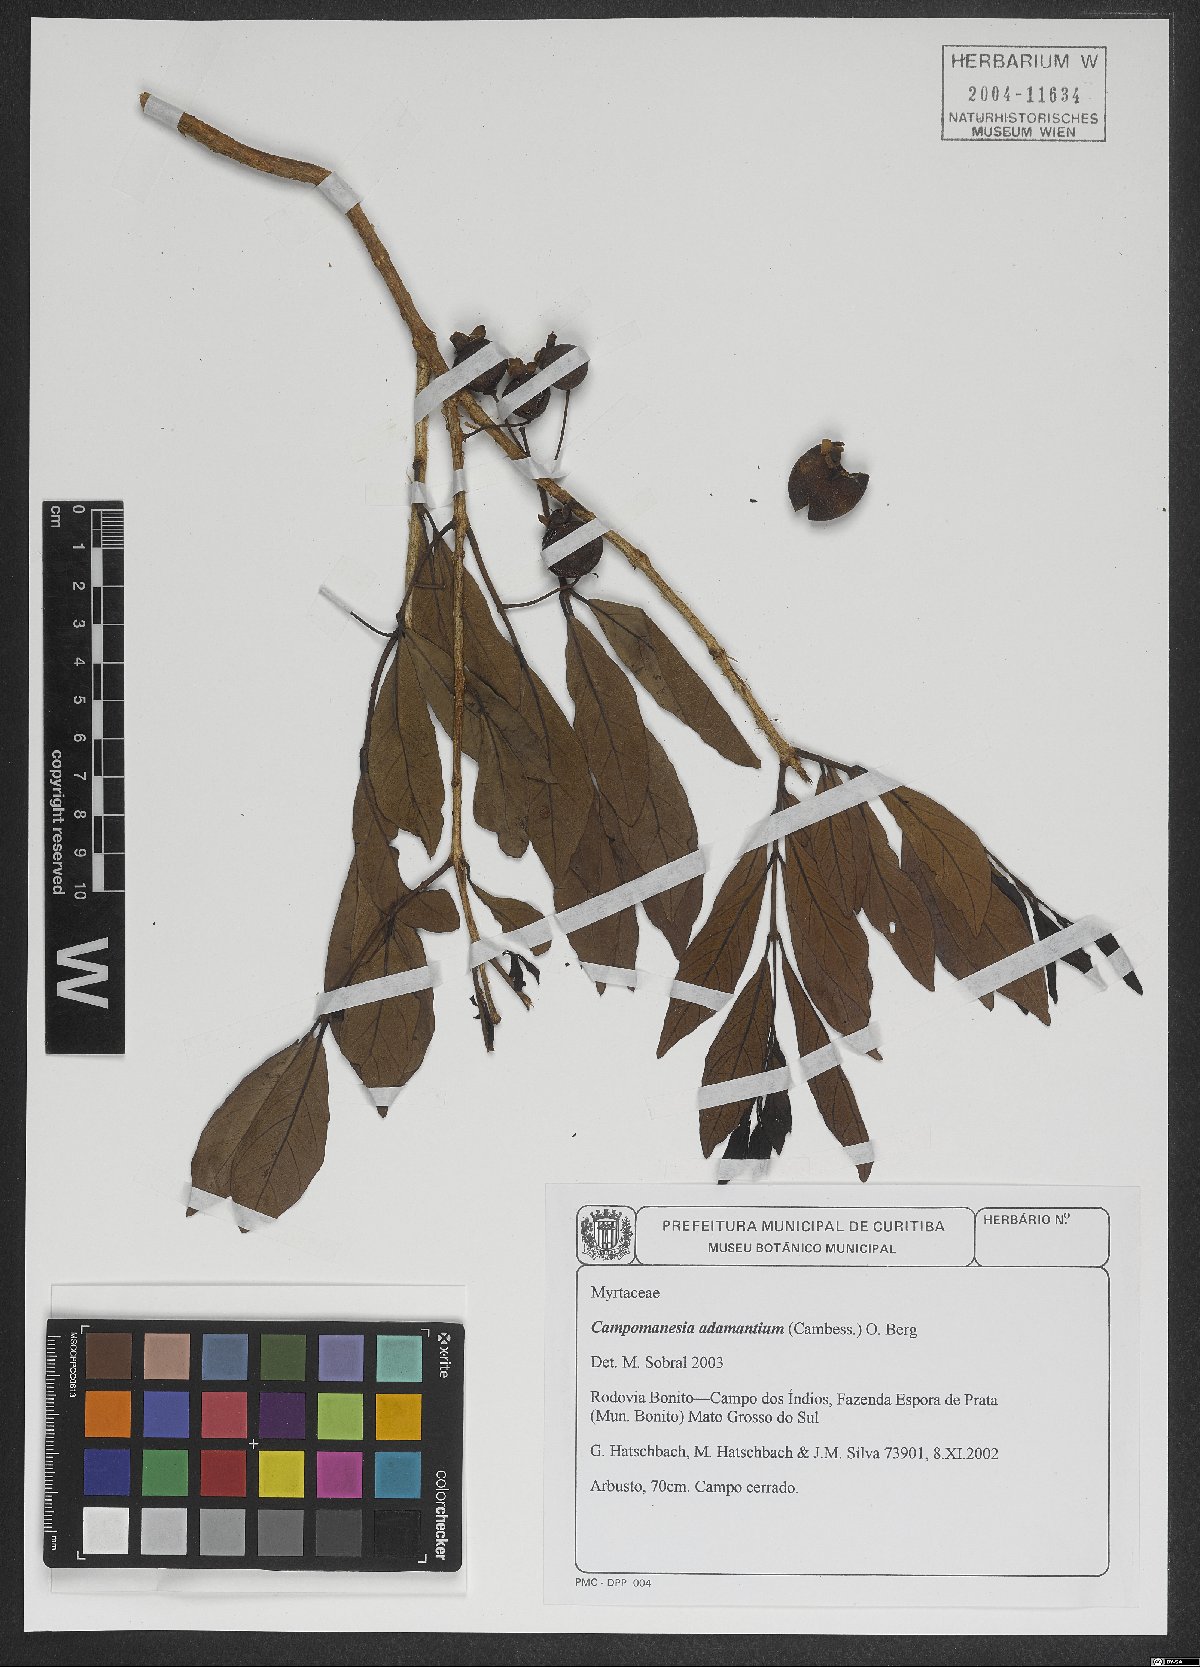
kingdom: Plantae
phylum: Tracheophyta
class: Magnoliopsida
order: Myrtales
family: Myrtaceae
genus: Campomanesia
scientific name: Campomanesia adamantium
